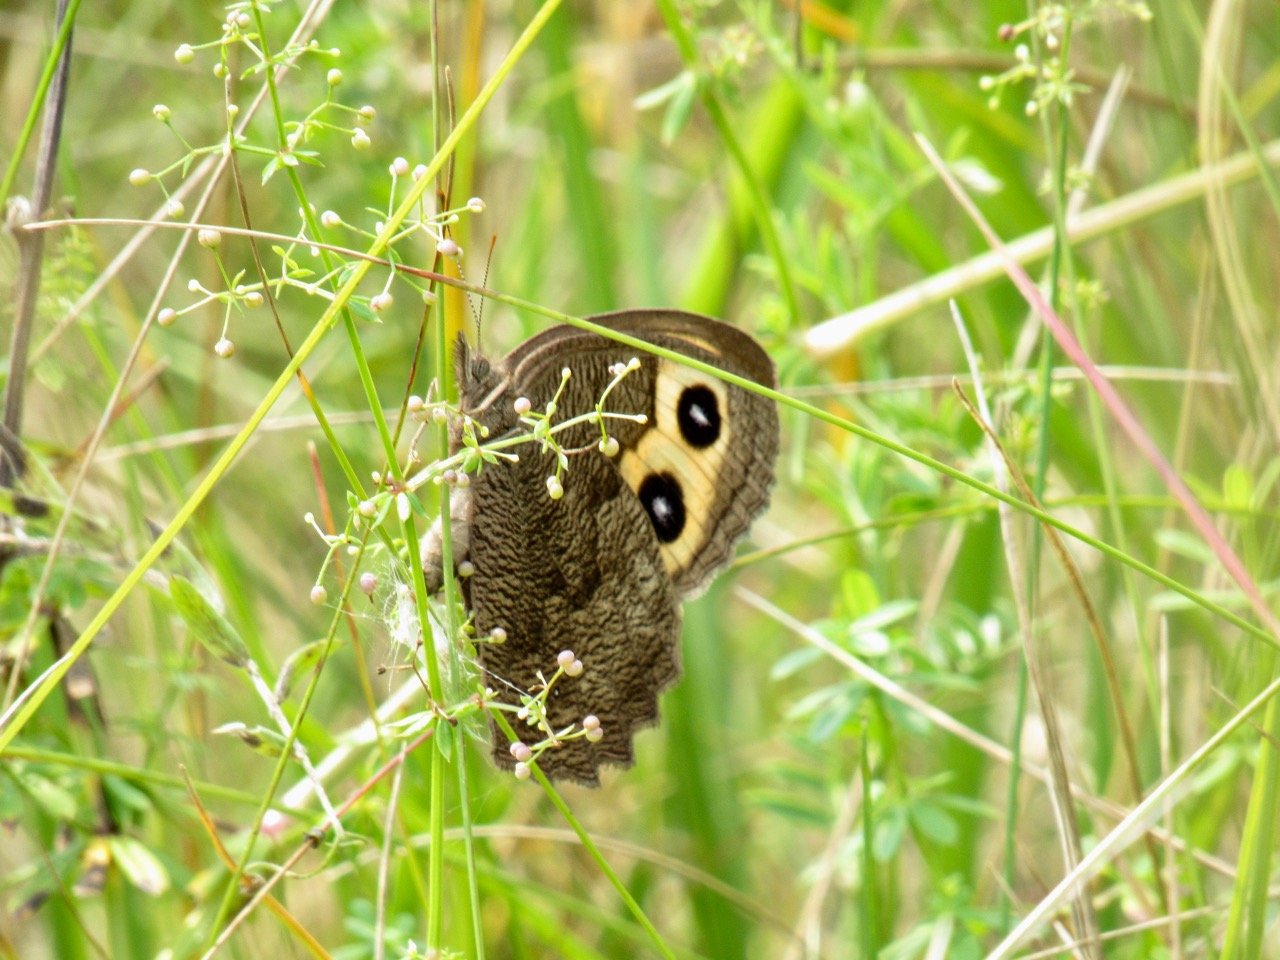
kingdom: Animalia
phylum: Arthropoda
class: Insecta
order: Lepidoptera
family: Nymphalidae
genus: Cercyonis
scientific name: Cercyonis pegala
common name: Common Wood-Nymph
